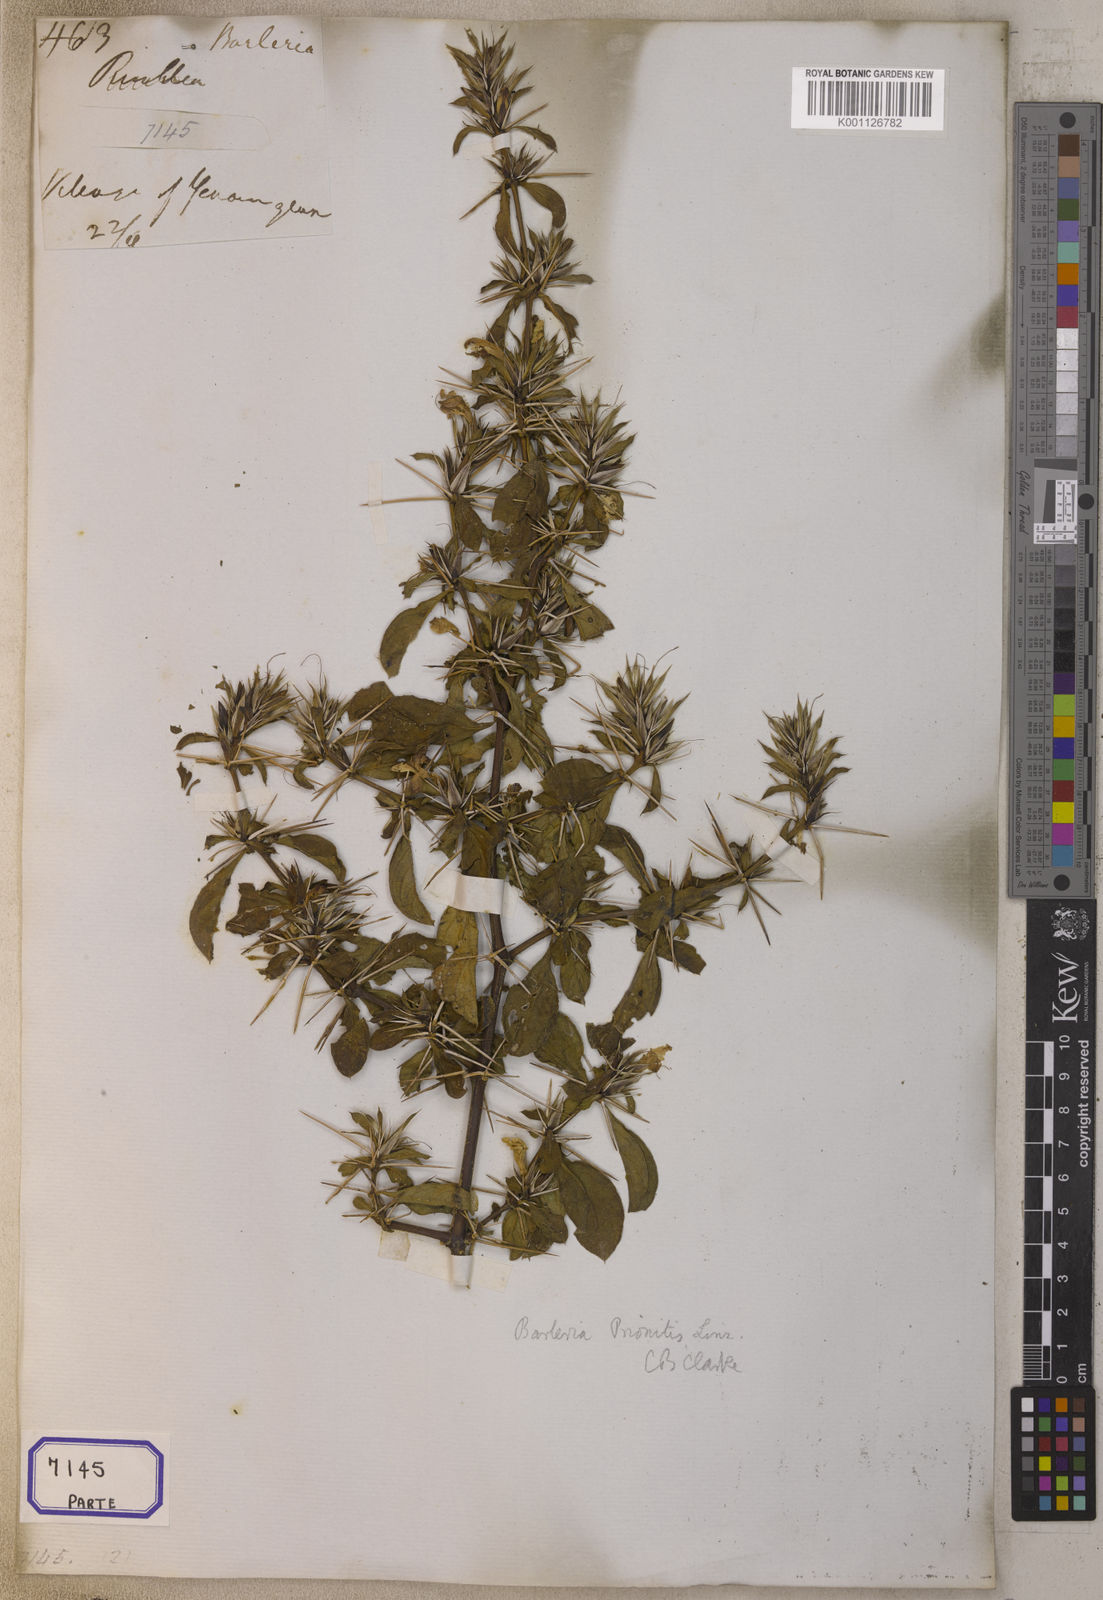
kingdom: Plantae
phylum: Tracheophyta
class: Magnoliopsida
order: Lamiales
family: Acanthaceae
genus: Barleria
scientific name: Barleria prionitis
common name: Barleria
